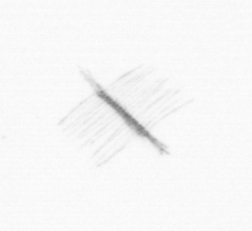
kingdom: Chromista
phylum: Ochrophyta
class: Bacillariophyceae
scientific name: Bacillariophyceae
